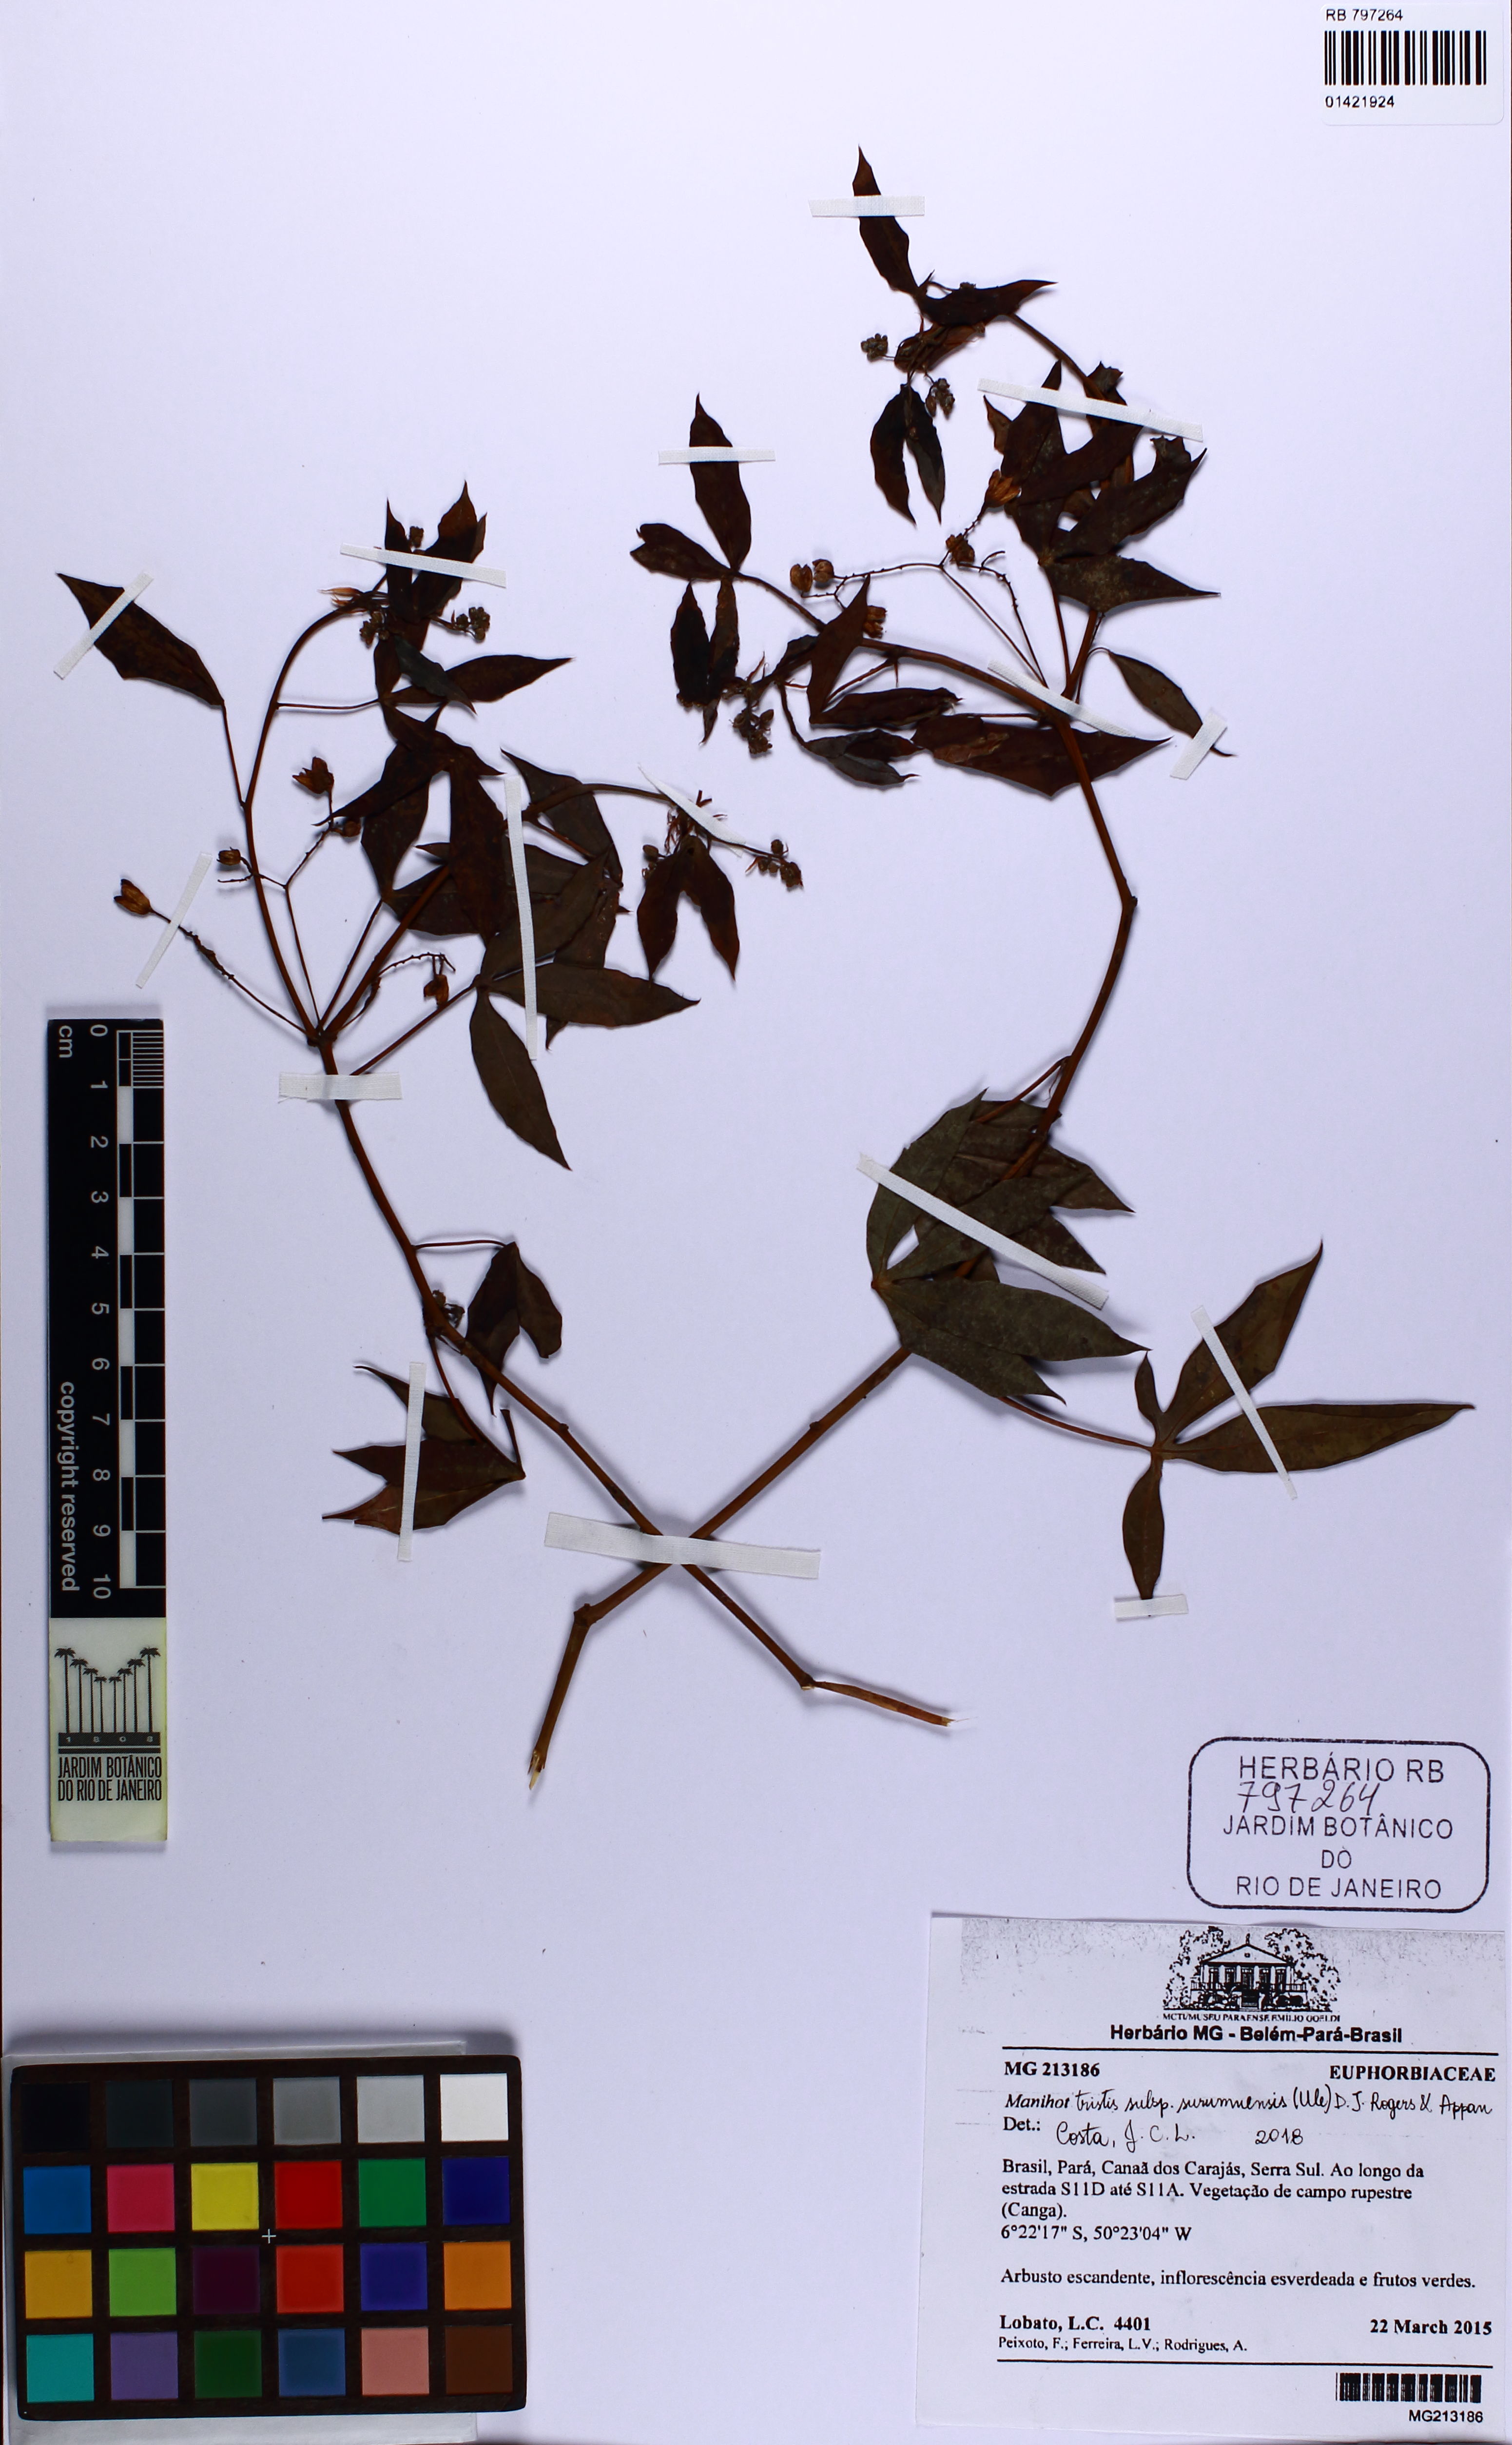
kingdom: Plantae
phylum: Tracheophyta
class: Magnoliopsida
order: Malpighiales
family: Euphorbiaceae
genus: Manihot
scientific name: Manihot tristis
